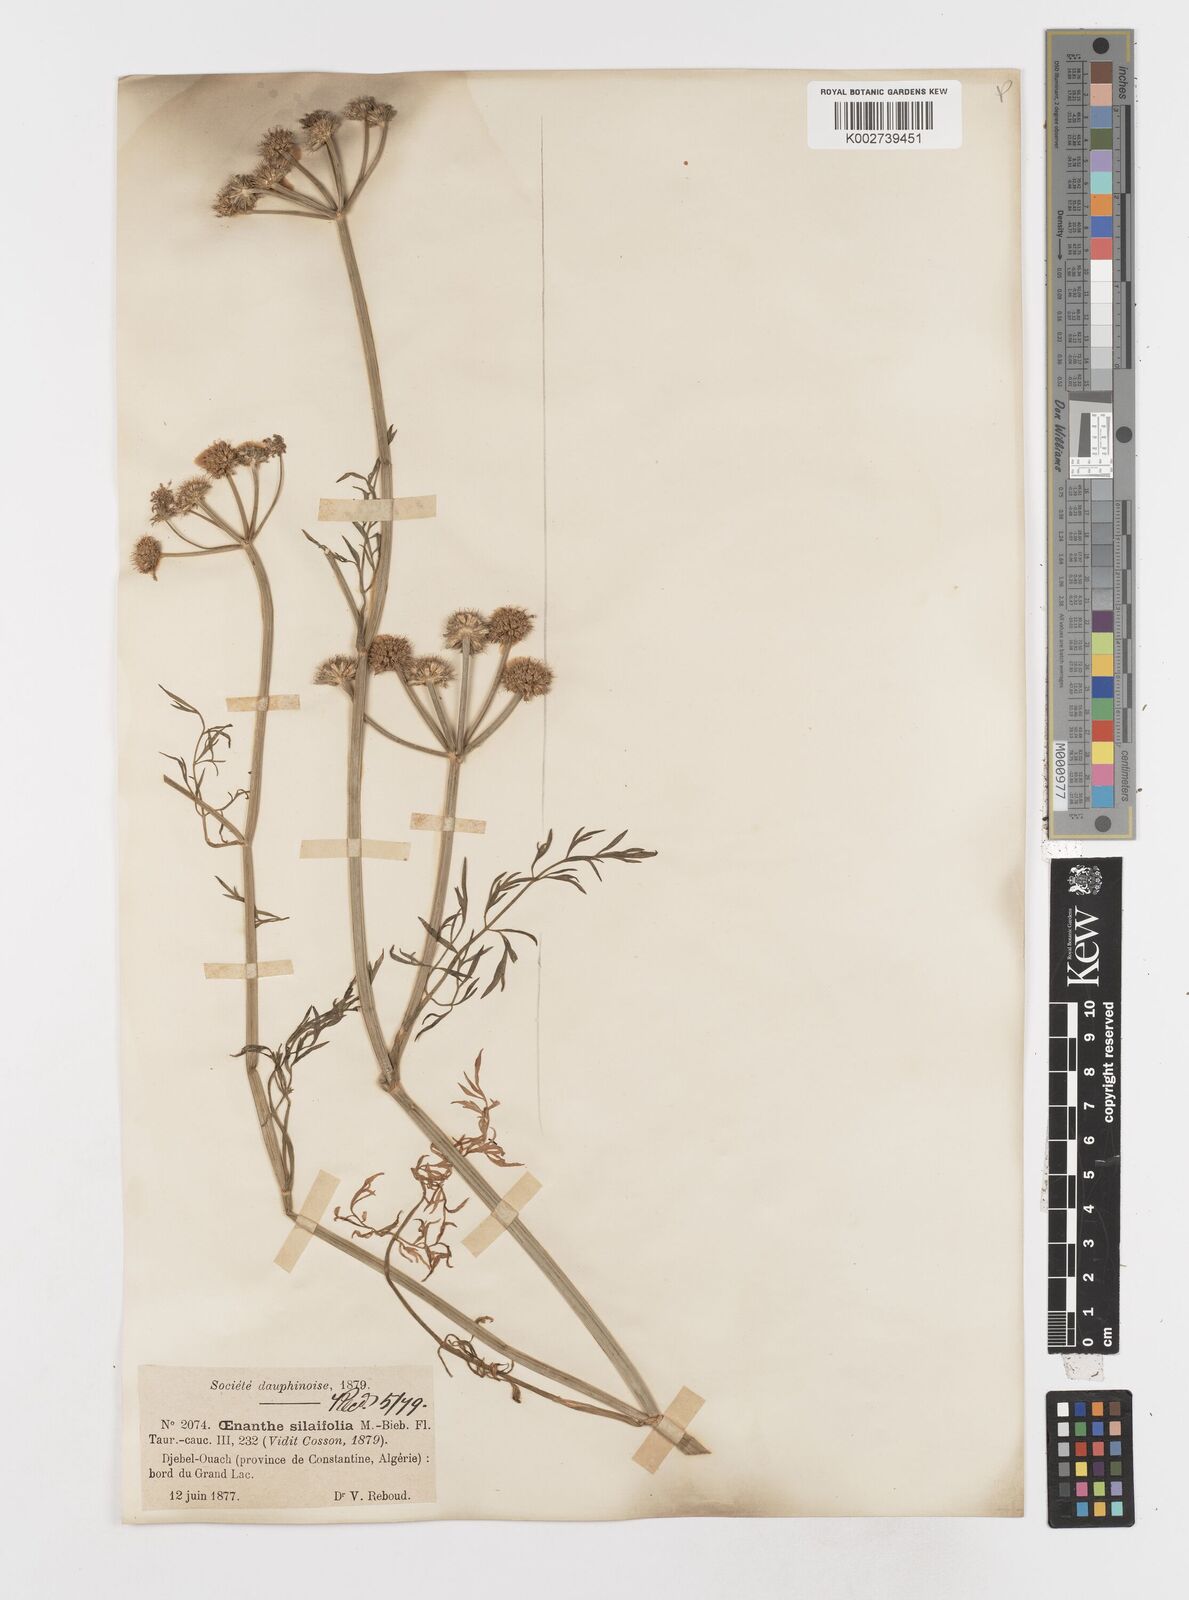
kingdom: Plantae
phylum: Tracheophyta
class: Magnoliopsida
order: Apiales
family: Apiaceae
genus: Oenanthe
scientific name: Oenanthe silaifolia
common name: Narrow-leaved water-dropwort
